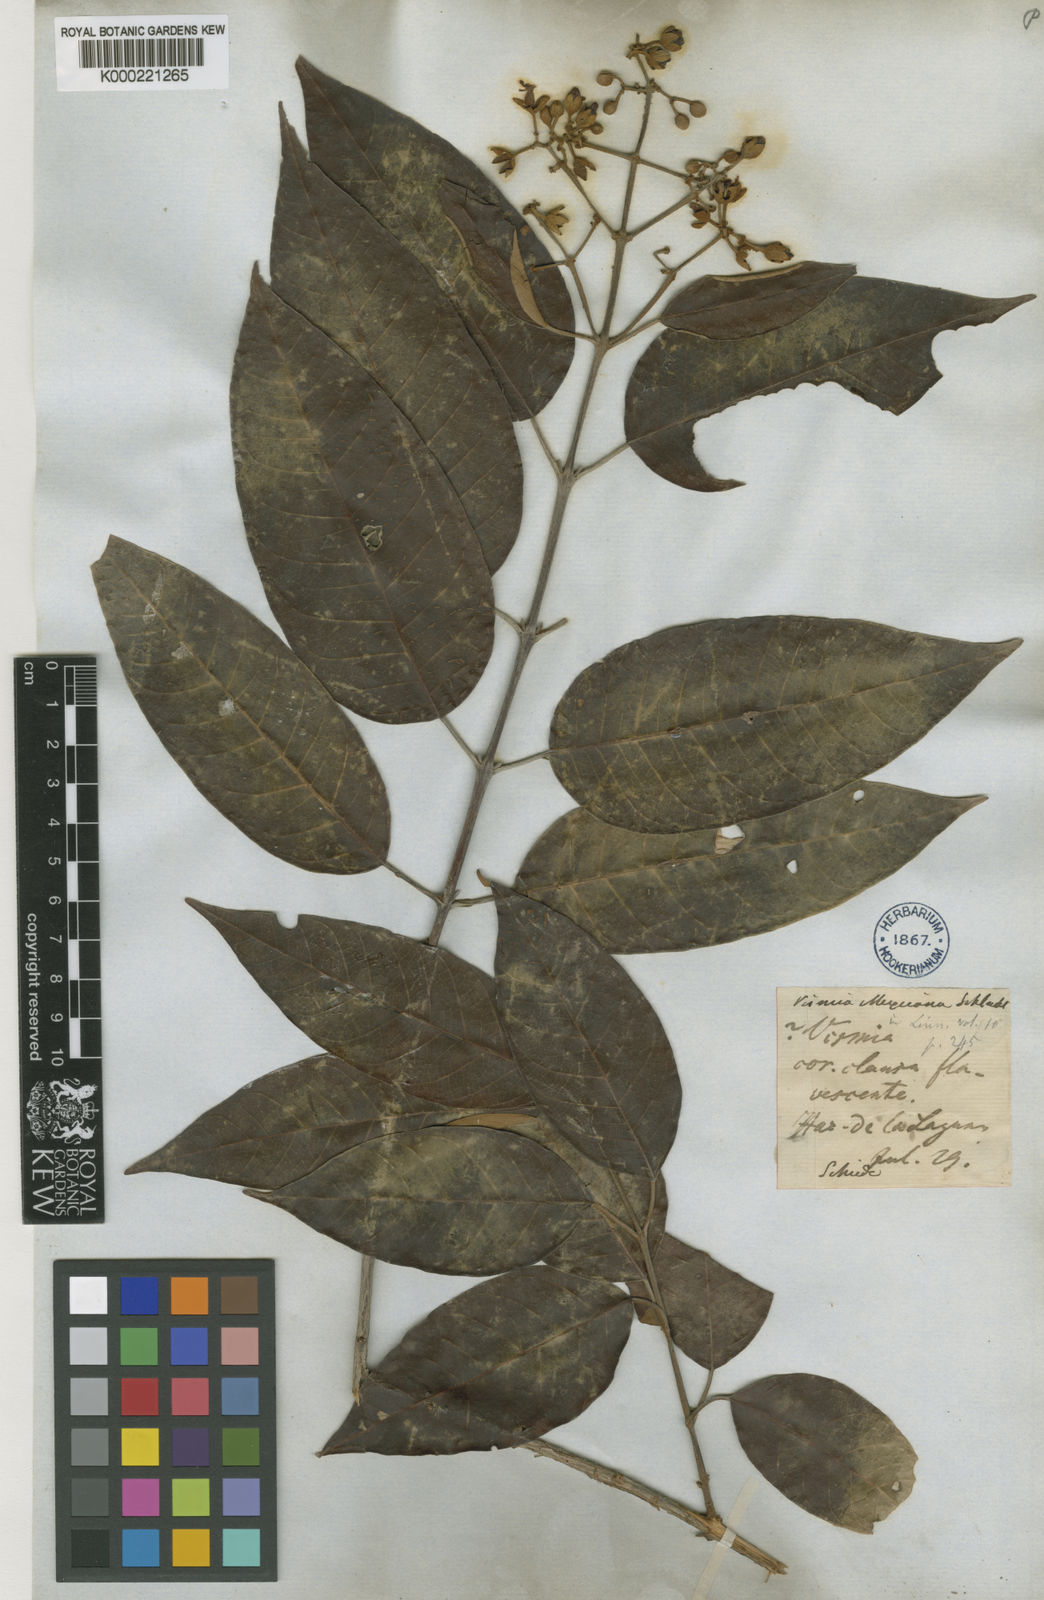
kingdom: Plantae
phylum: Tracheophyta
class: Magnoliopsida
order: Malpighiales
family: Hypericaceae
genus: Vismia
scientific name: Vismia baccifera
